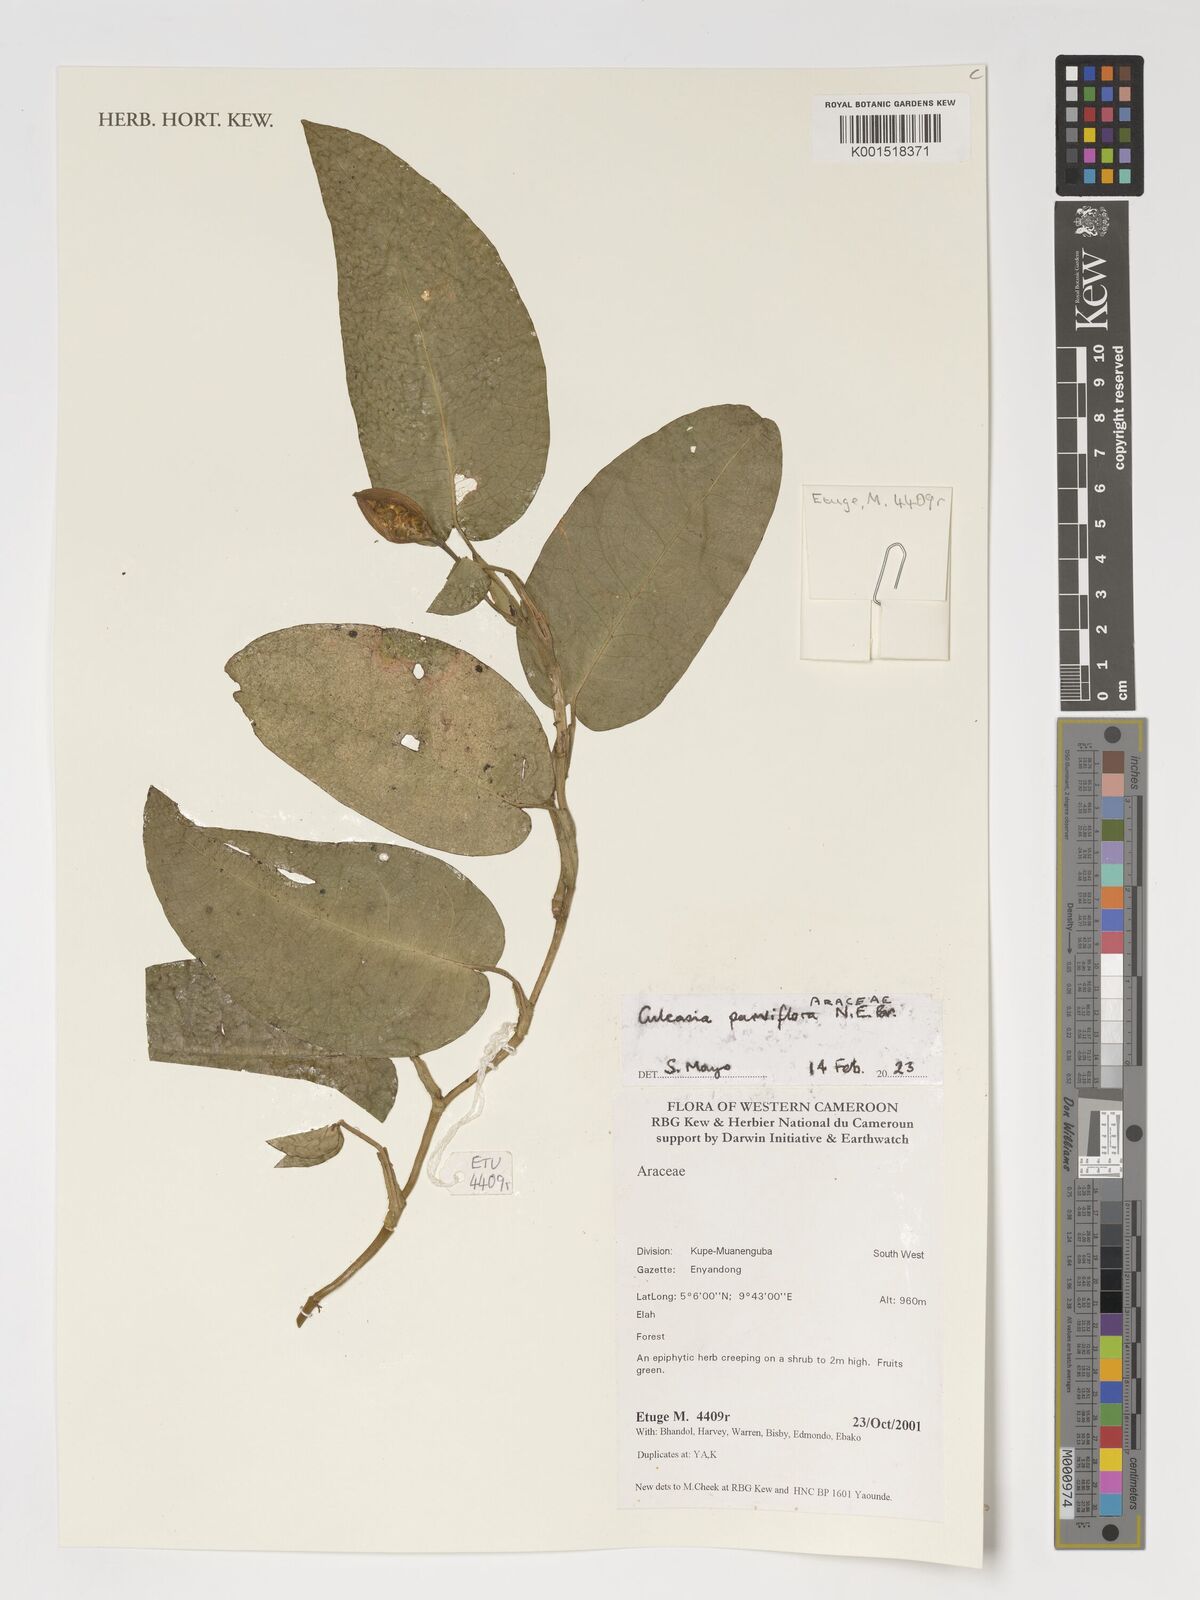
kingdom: Plantae
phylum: Tracheophyta
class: Liliopsida
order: Alismatales
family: Araceae
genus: Culcasia
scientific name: Culcasia parviflora
